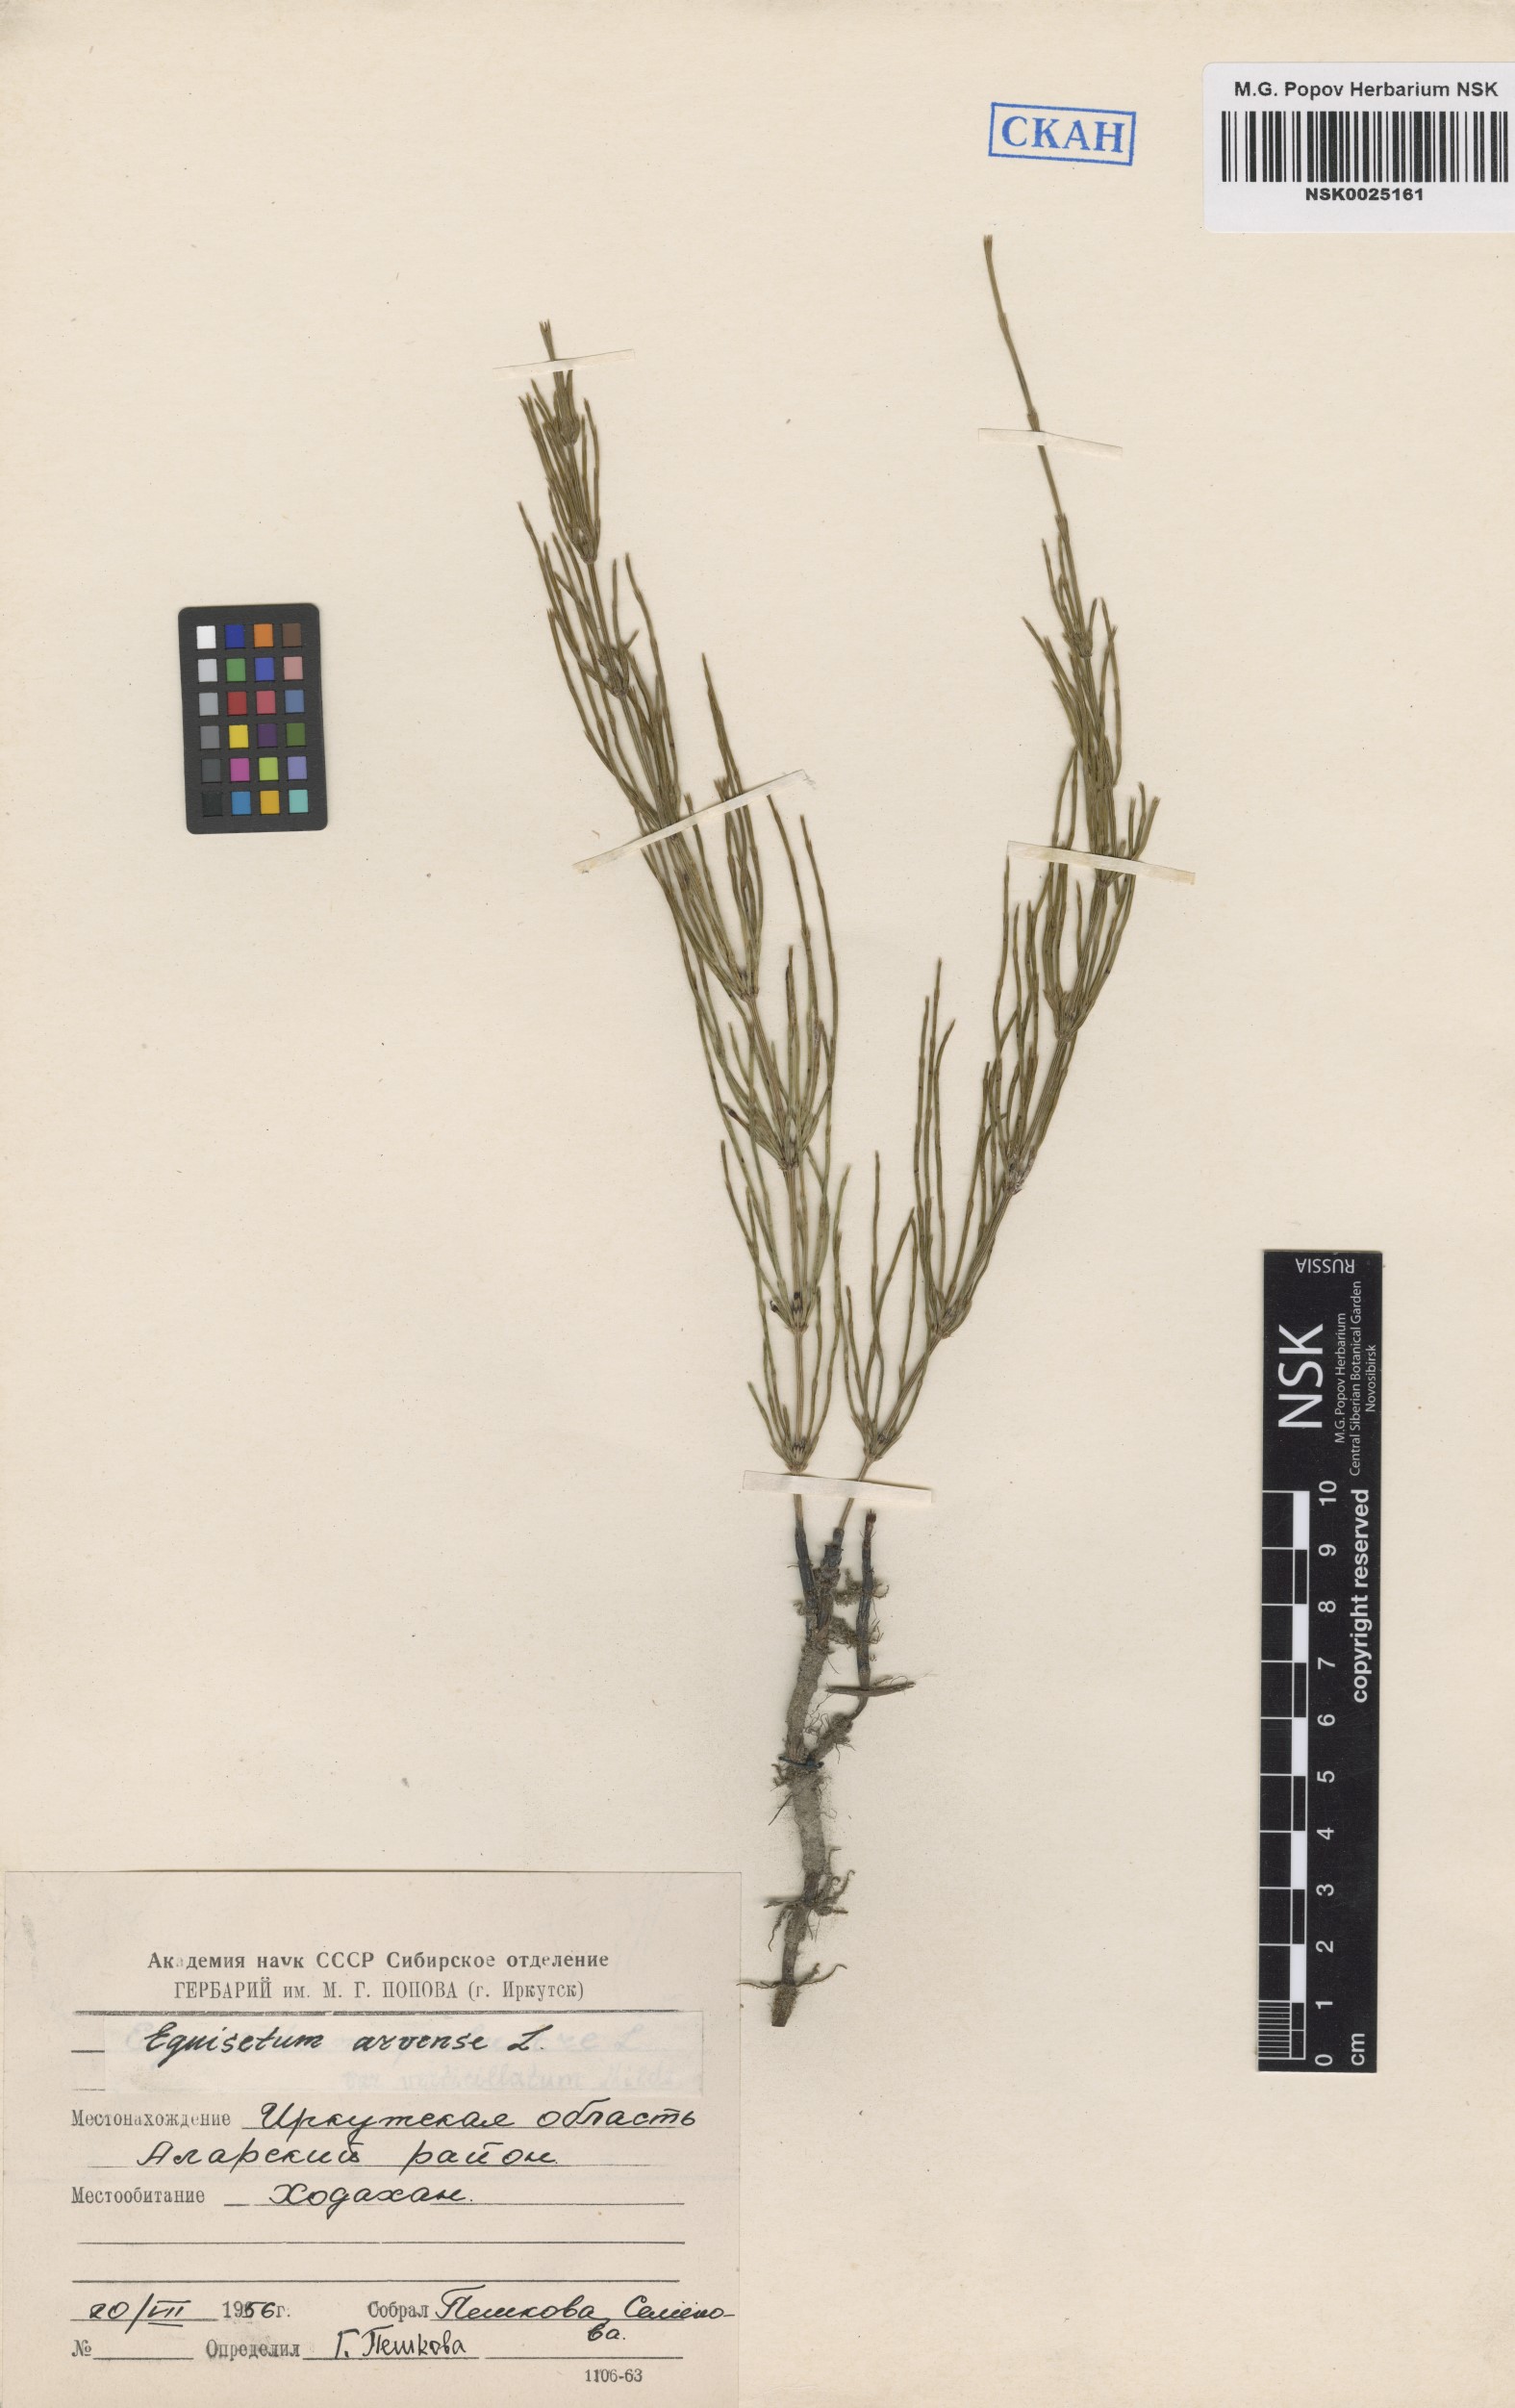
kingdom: Plantae
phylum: Tracheophyta
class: Polypodiopsida
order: Equisetales
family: Equisetaceae
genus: Equisetum
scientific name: Equisetum arvense
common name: Field horsetail
